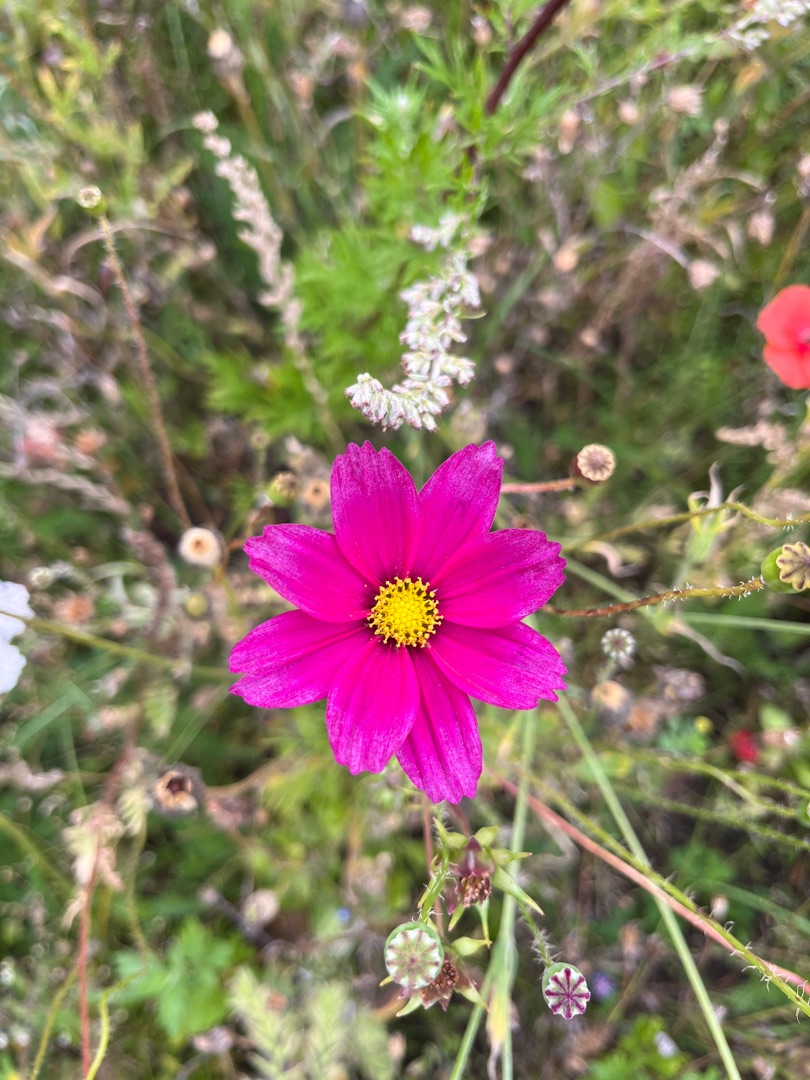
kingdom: Plantae
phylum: Tracheophyta
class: Magnoliopsida
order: Asterales
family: Asteraceae
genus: Cosmos
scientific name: Cosmos bipinnatus
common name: Stolt kavaler
